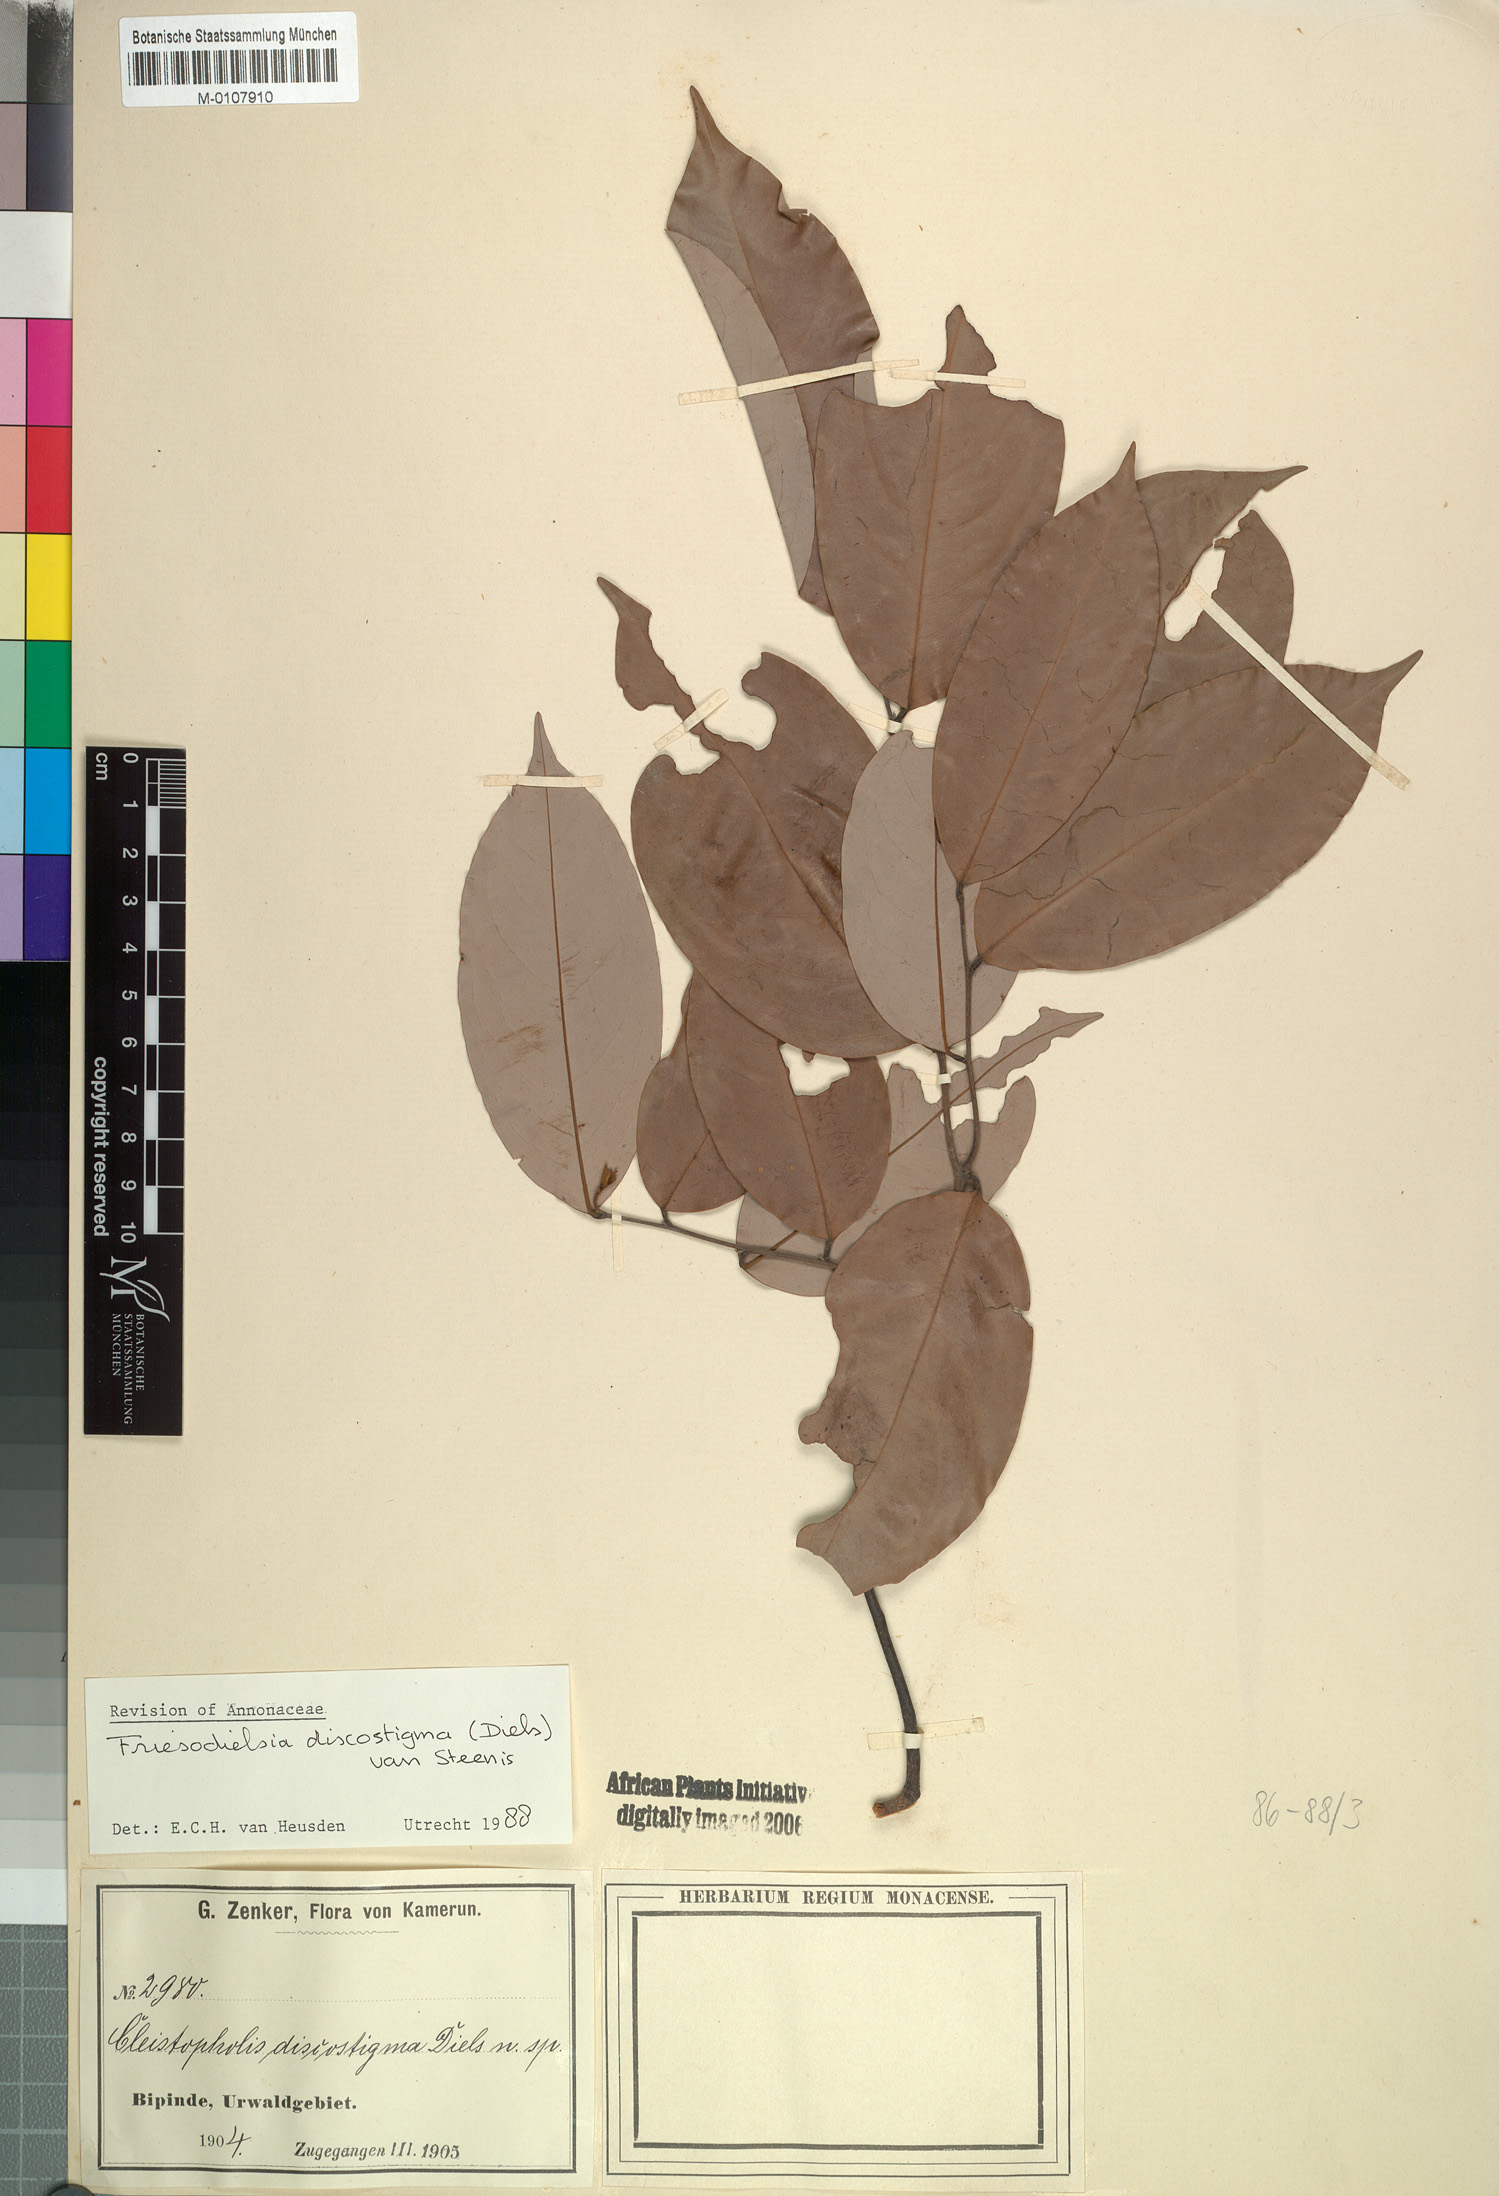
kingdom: Plantae
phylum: Tracheophyta
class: Magnoliopsida
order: Magnoliales
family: Annonaceae
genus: Friesodielsia
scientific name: Friesodielsia discostigma
